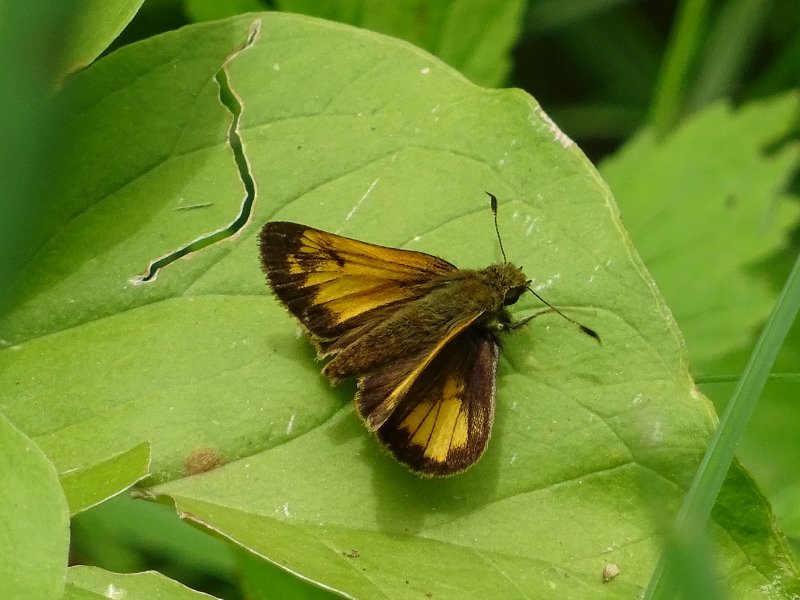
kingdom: Animalia
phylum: Arthropoda
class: Insecta
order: Lepidoptera
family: Hesperiidae
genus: Lon
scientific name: Lon hobomok
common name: Hobomok Skipper
